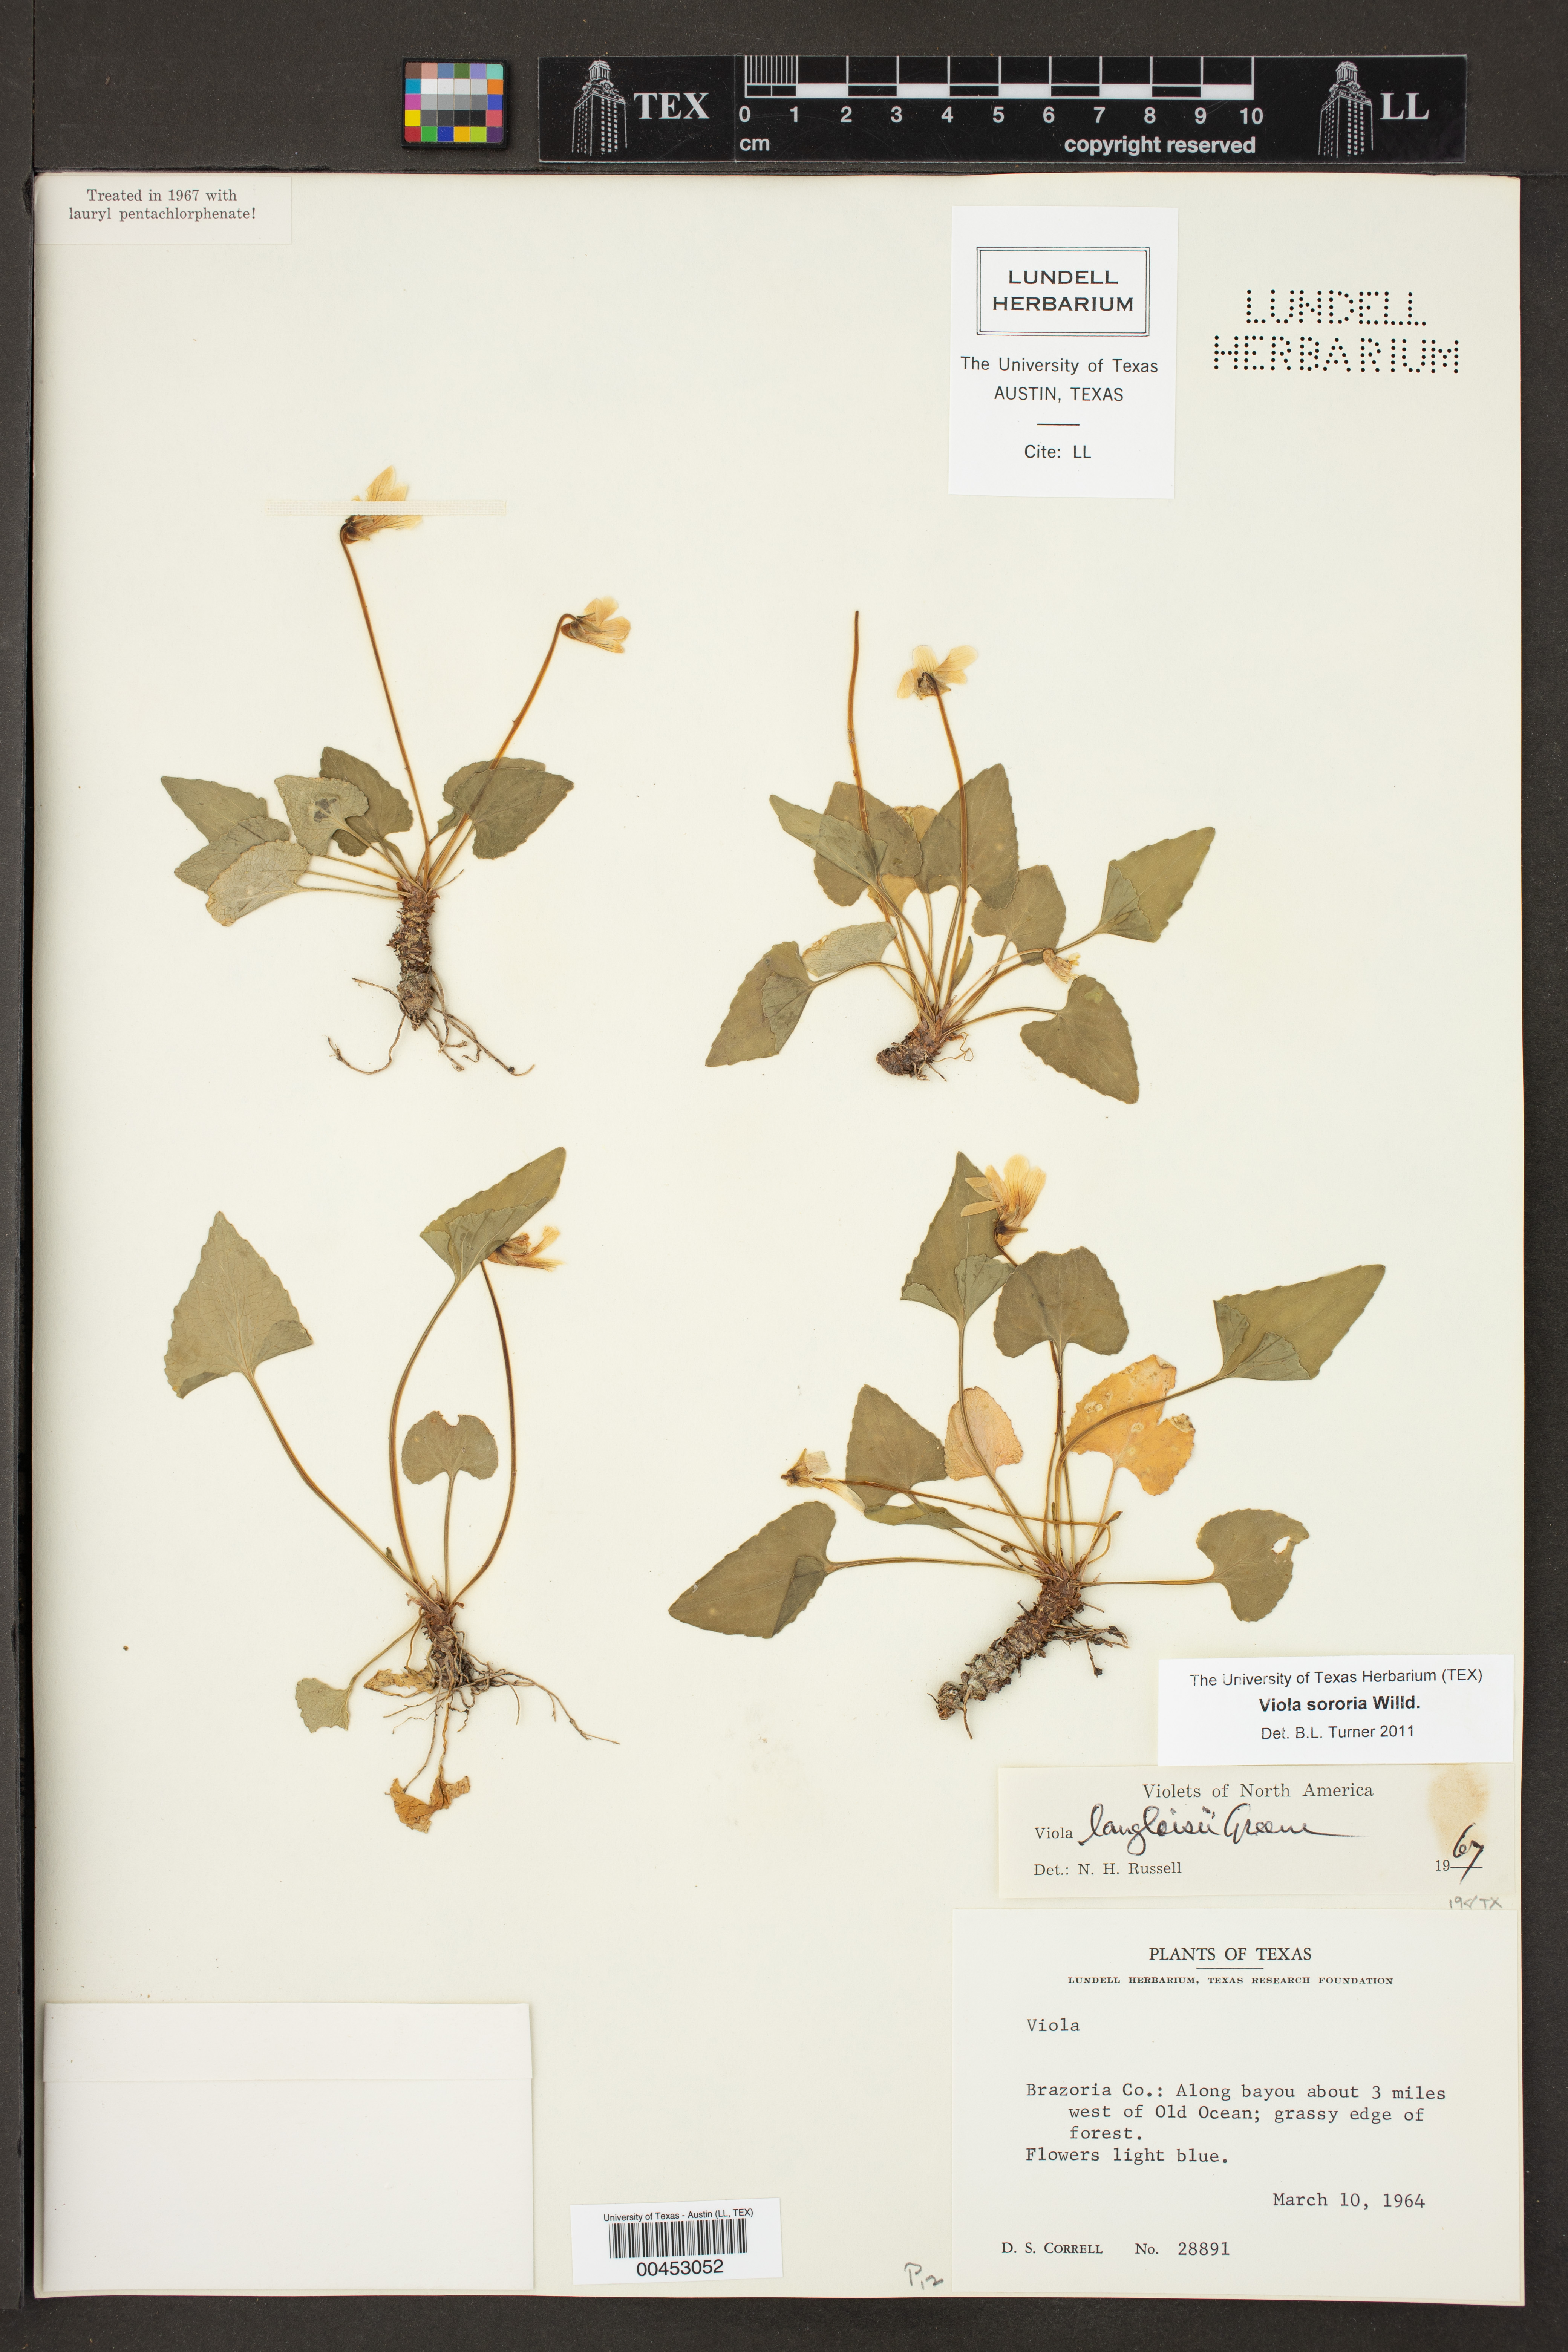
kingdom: Plantae
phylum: Tracheophyta
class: Magnoliopsida
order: Malpighiales
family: Violaceae
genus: Viola
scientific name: Viola sororia
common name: Dooryard violet
